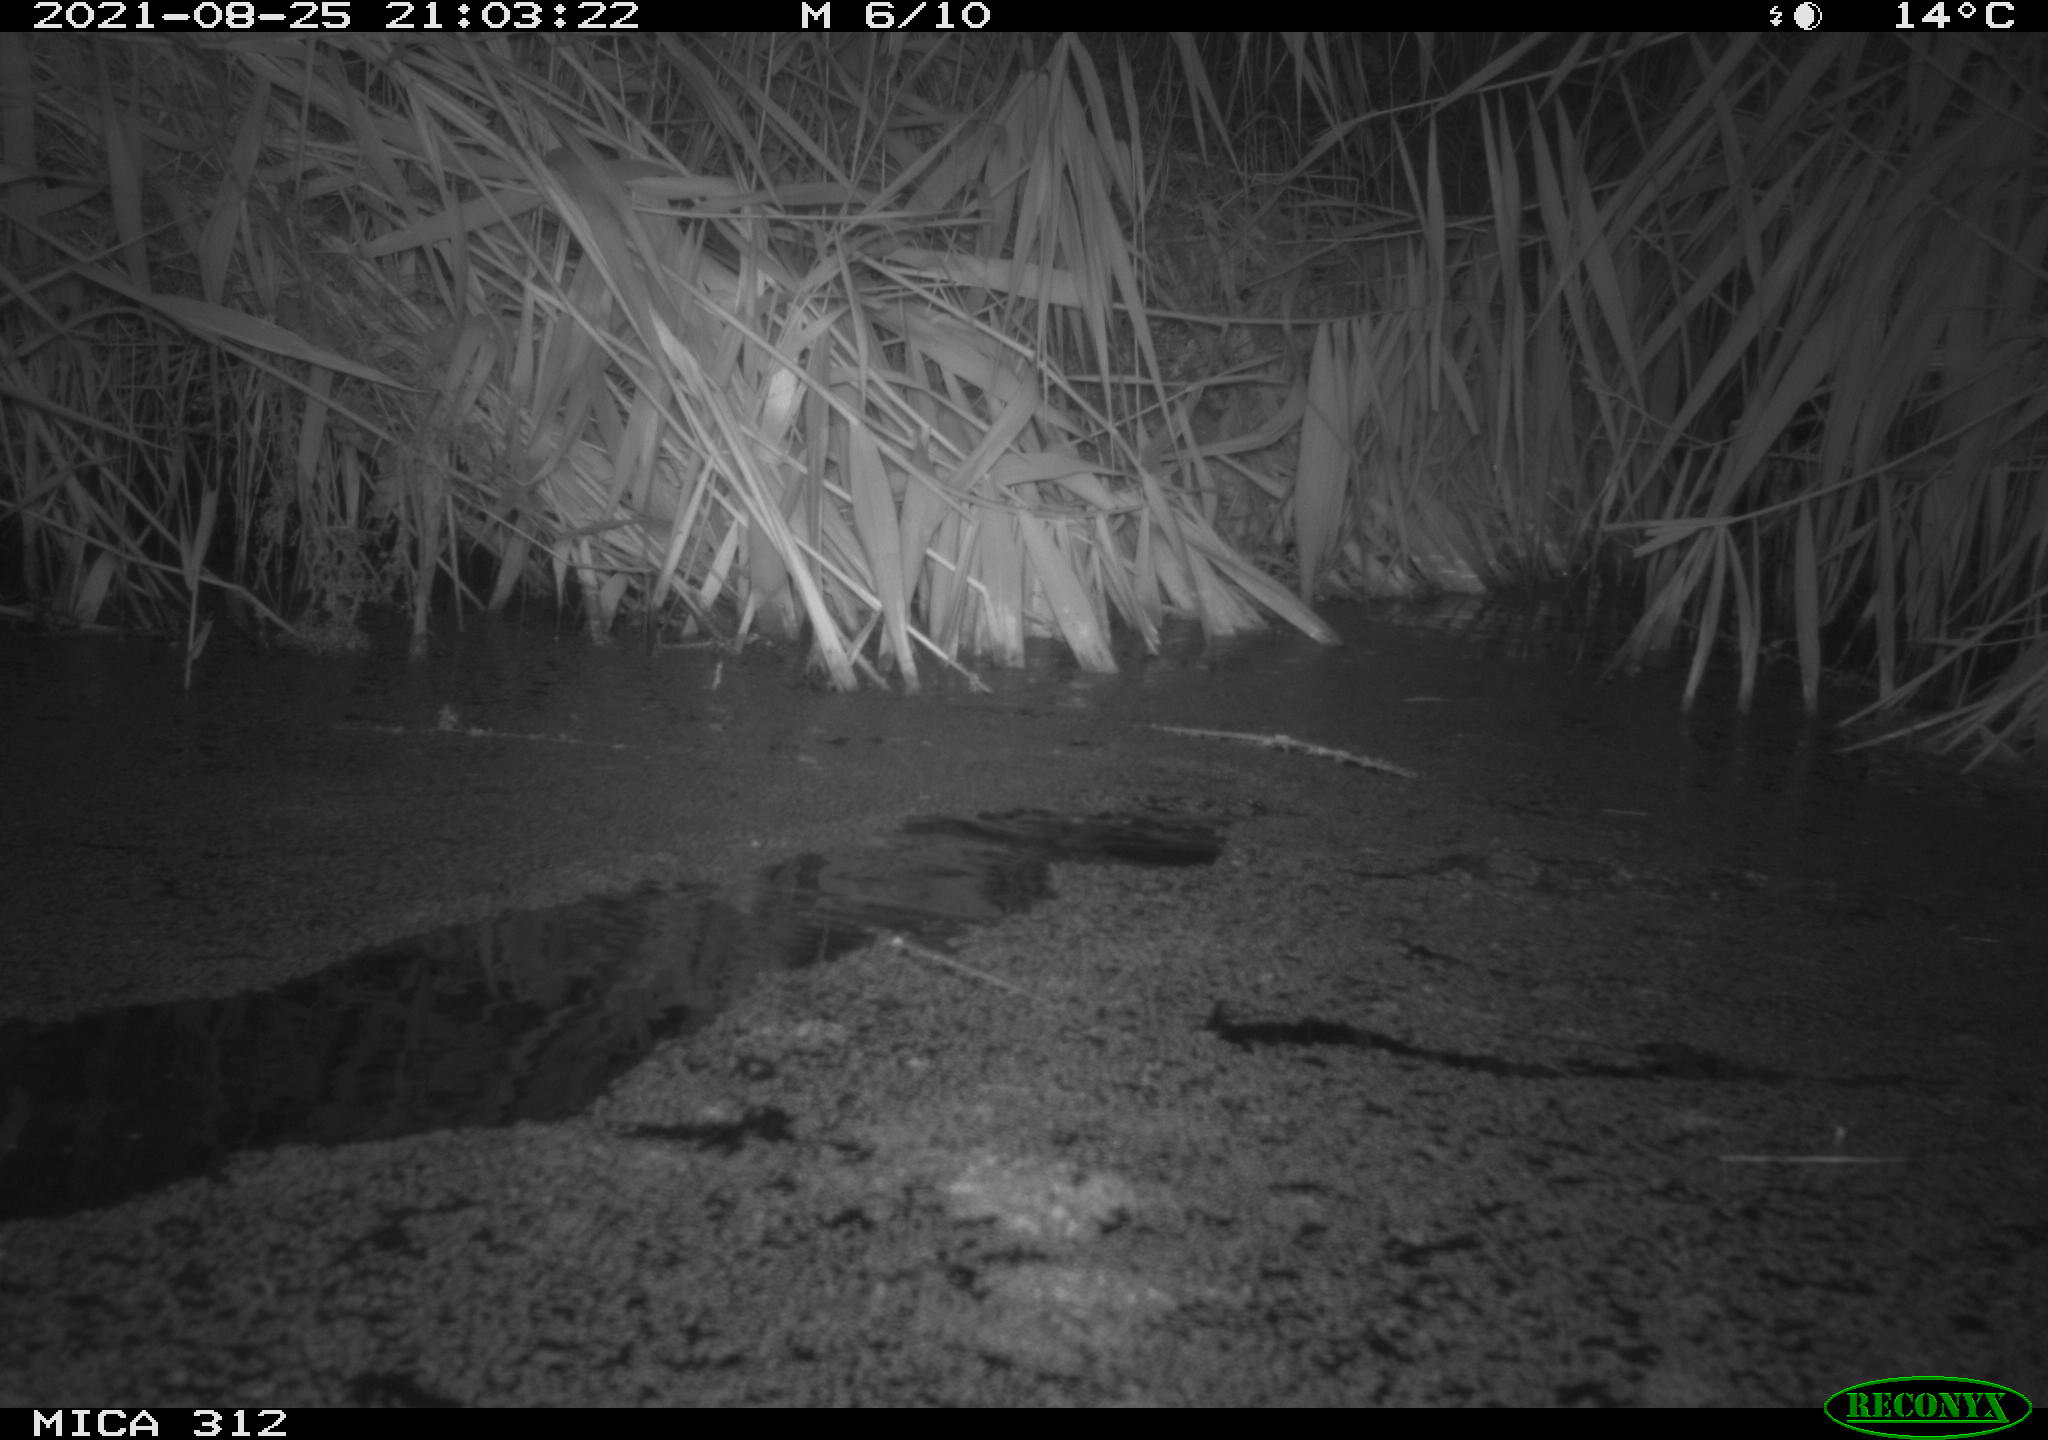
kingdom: Animalia
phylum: Chordata
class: Mammalia
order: Rodentia
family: Cricetidae
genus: Ondatra
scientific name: Ondatra zibethicus
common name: Muskrat
